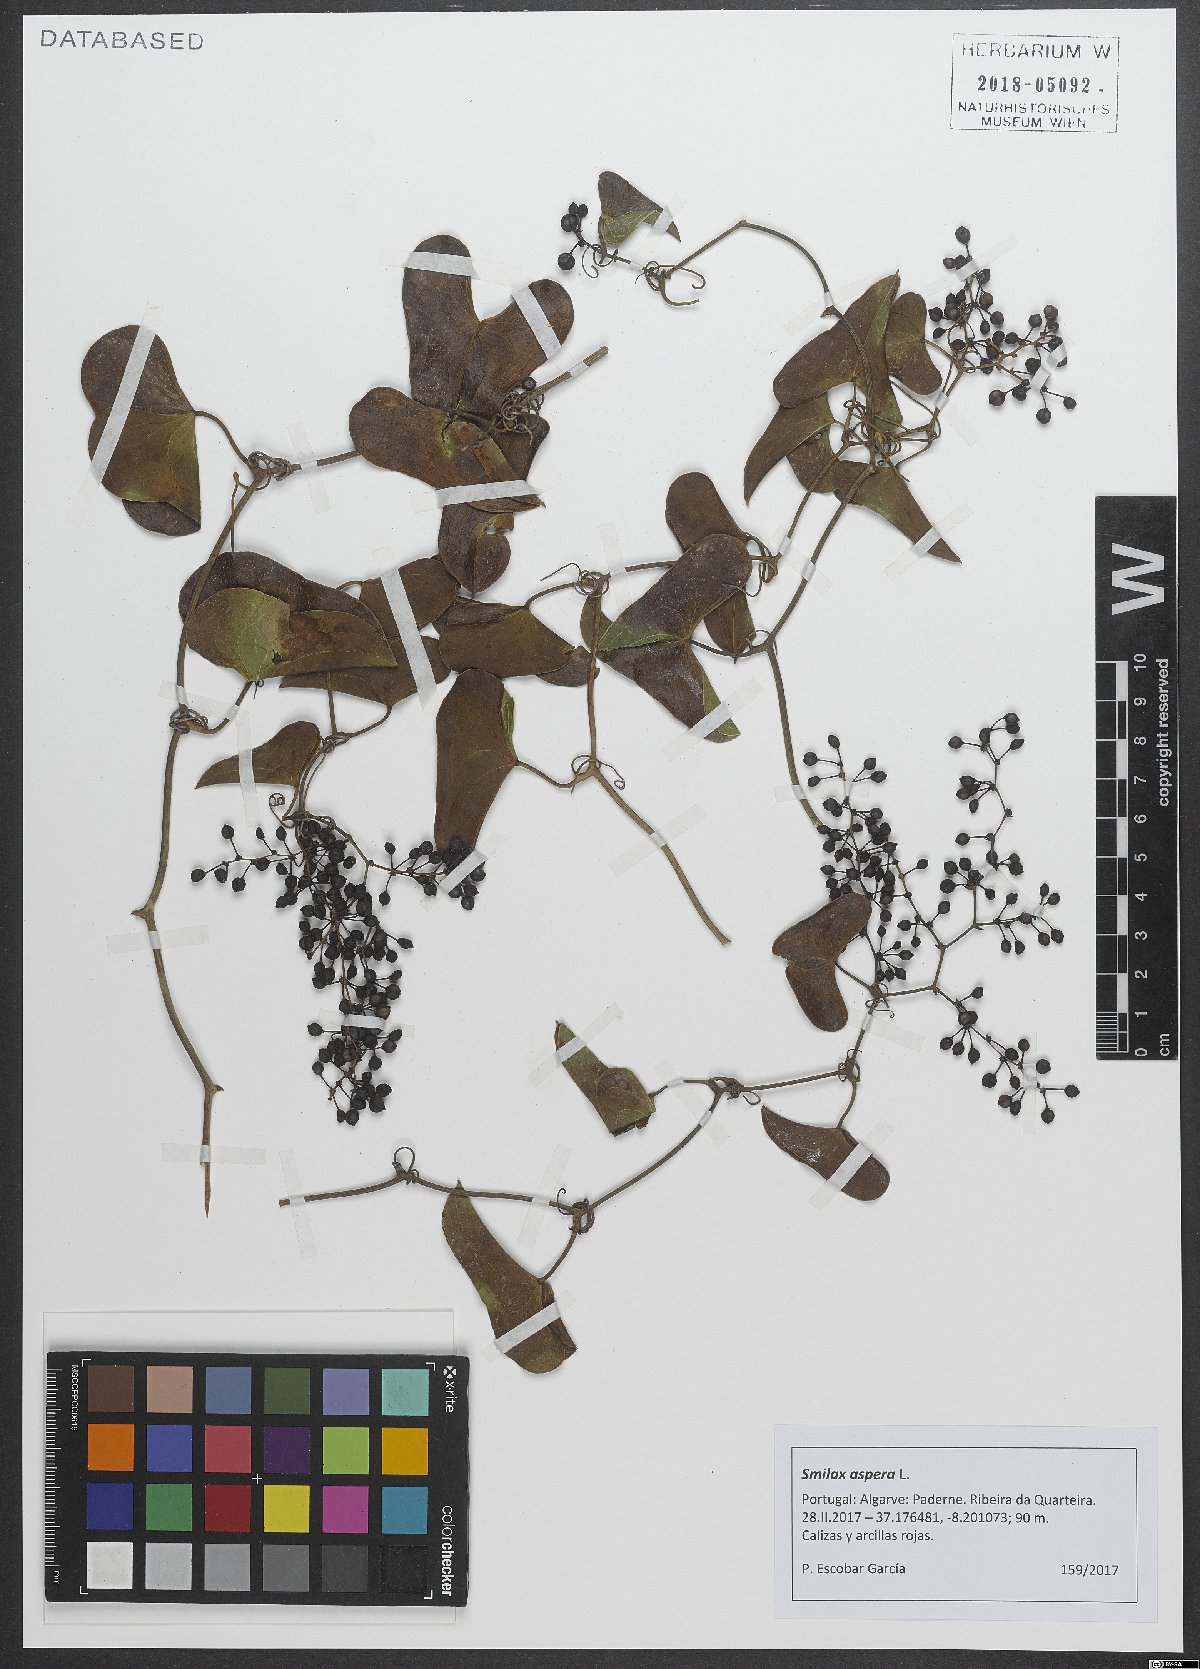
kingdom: Plantae
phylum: Tracheophyta
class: Liliopsida
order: Liliales
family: Smilacaceae
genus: Smilax
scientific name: Smilax aspera
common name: Common smilax
